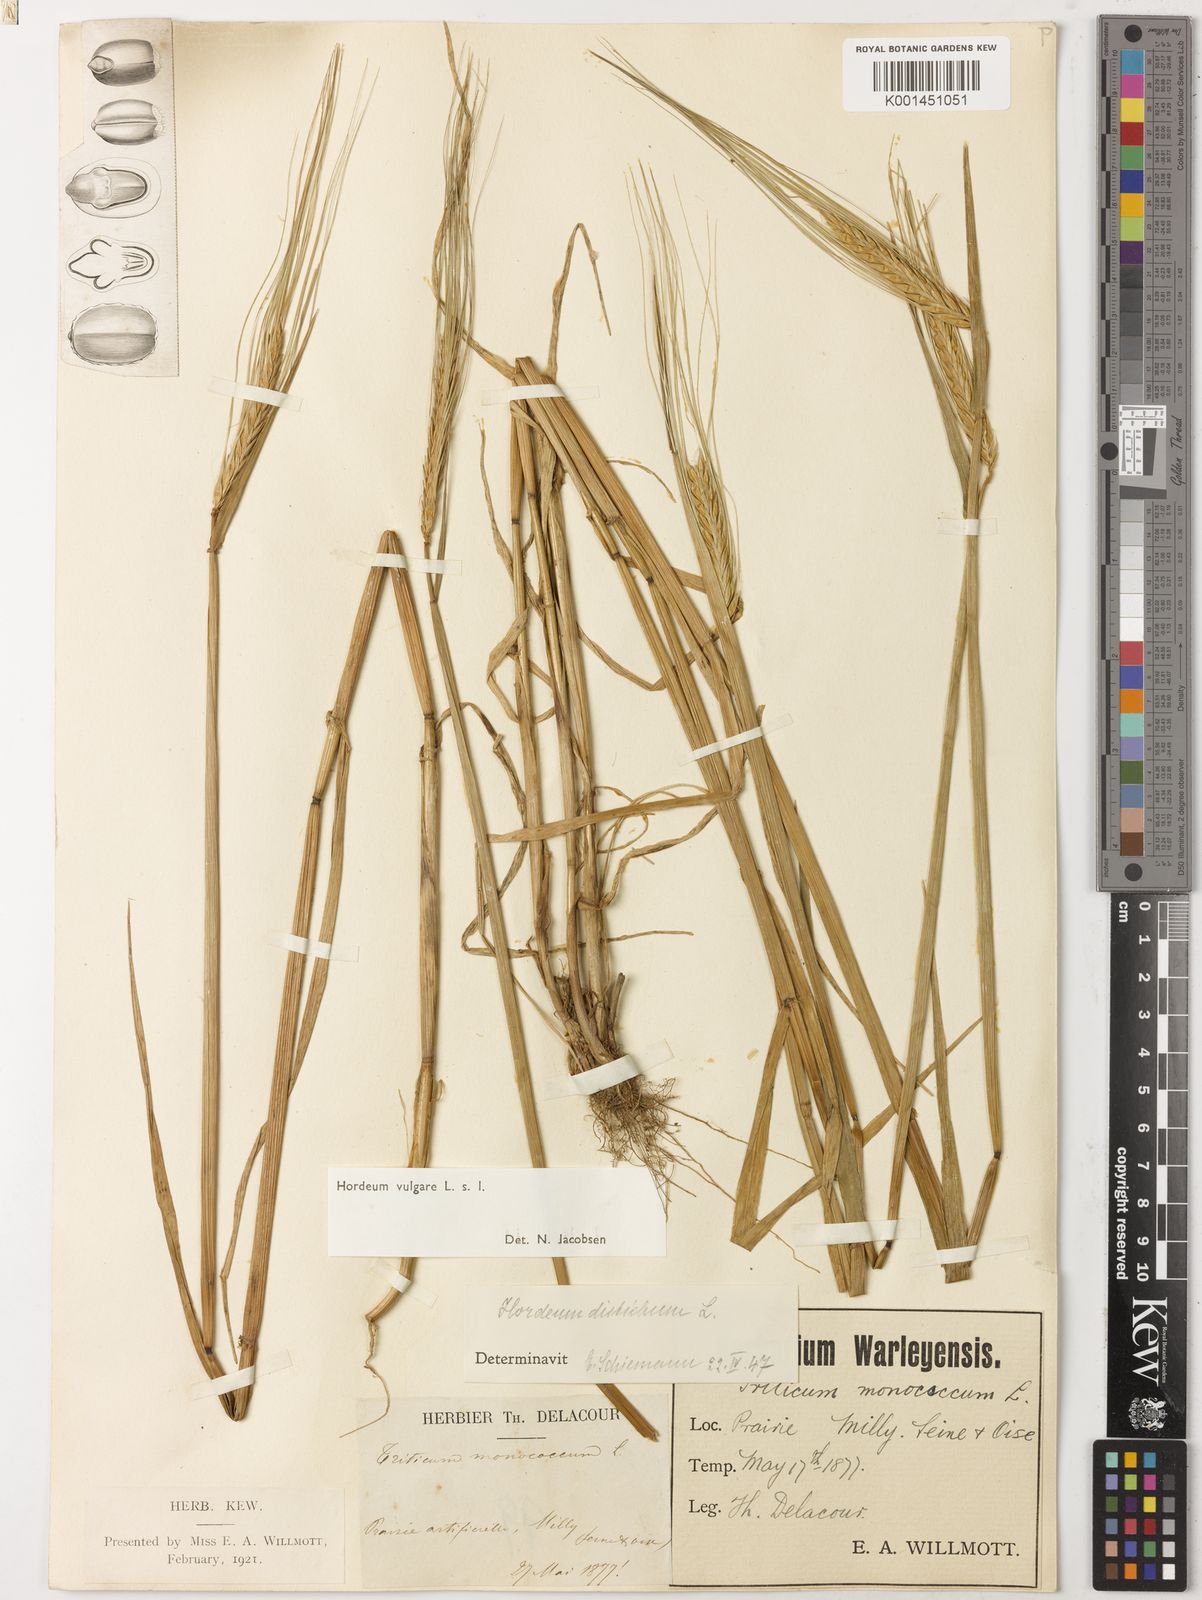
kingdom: Plantae
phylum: Tracheophyta
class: Liliopsida
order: Poales
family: Poaceae
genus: Hordeum
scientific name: Hordeum vulgare
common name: Common barley
